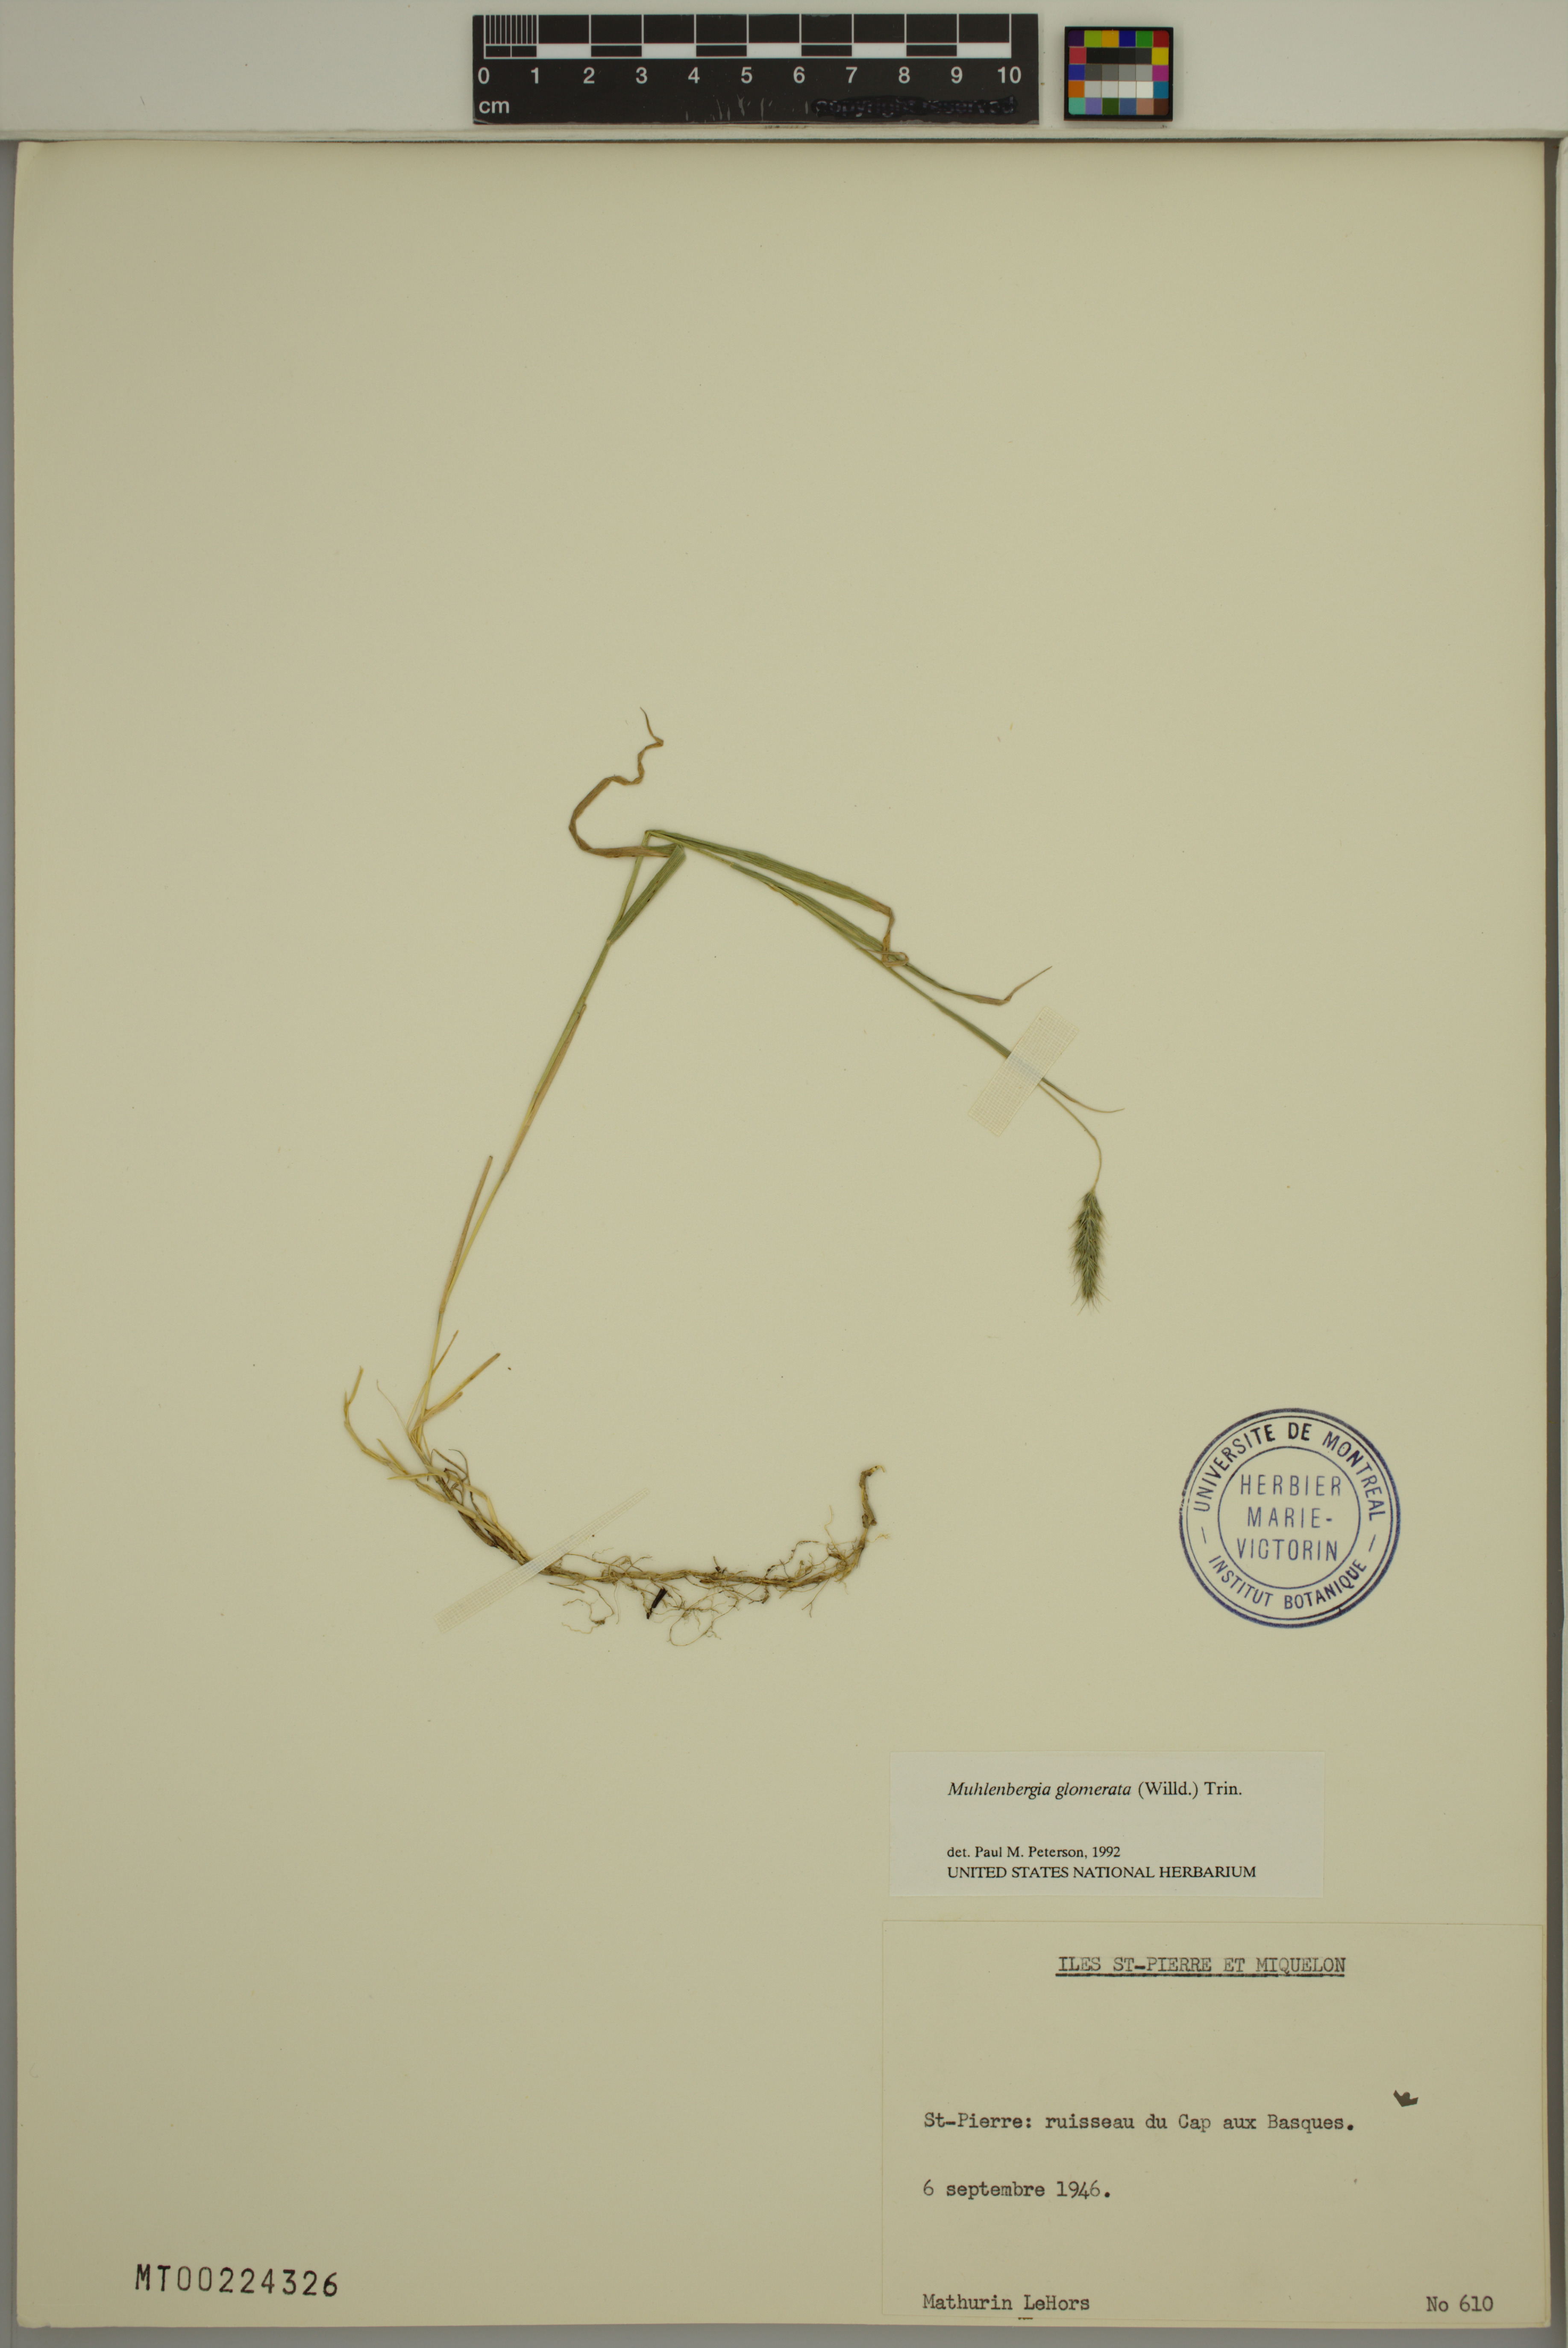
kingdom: Plantae
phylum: Tracheophyta
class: Liliopsida
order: Poales
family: Poaceae
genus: Muhlenbergia
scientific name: Muhlenbergia glomerata
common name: Bog muhly
